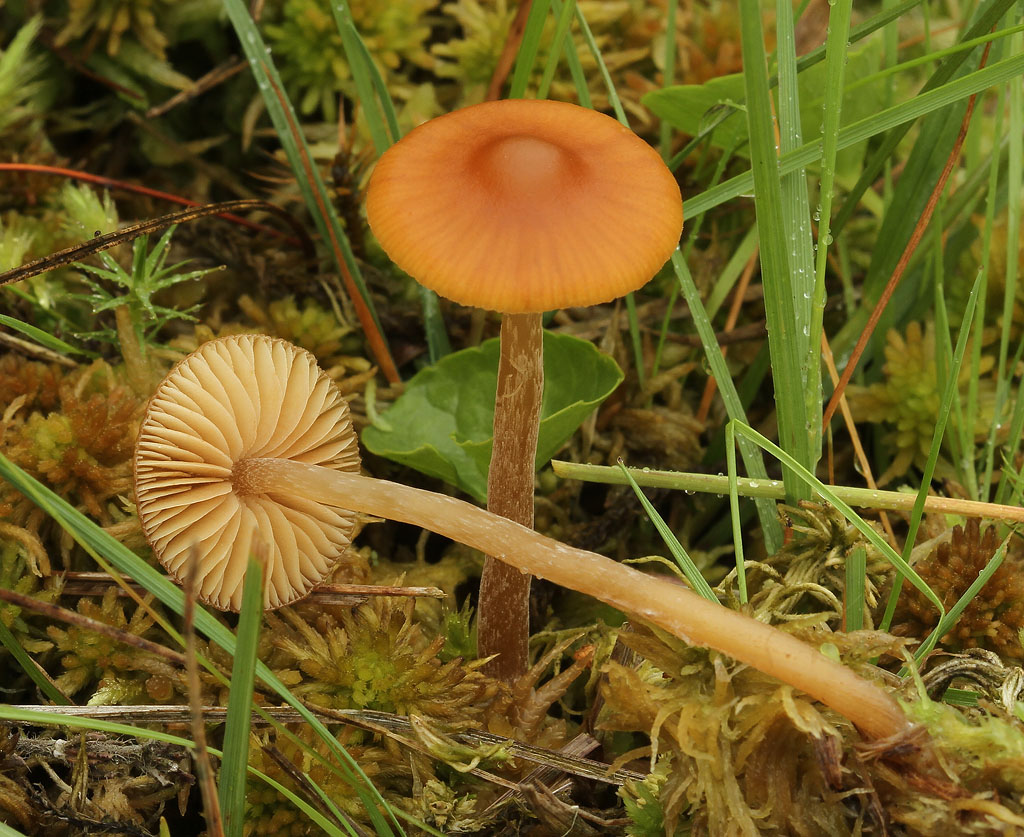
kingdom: Fungi
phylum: Basidiomycota
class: Agaricomycetes
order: Agaricales
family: Hymenogastraceae
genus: Galerina
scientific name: Galerina hybrida
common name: hængesæk-hjelmhat
